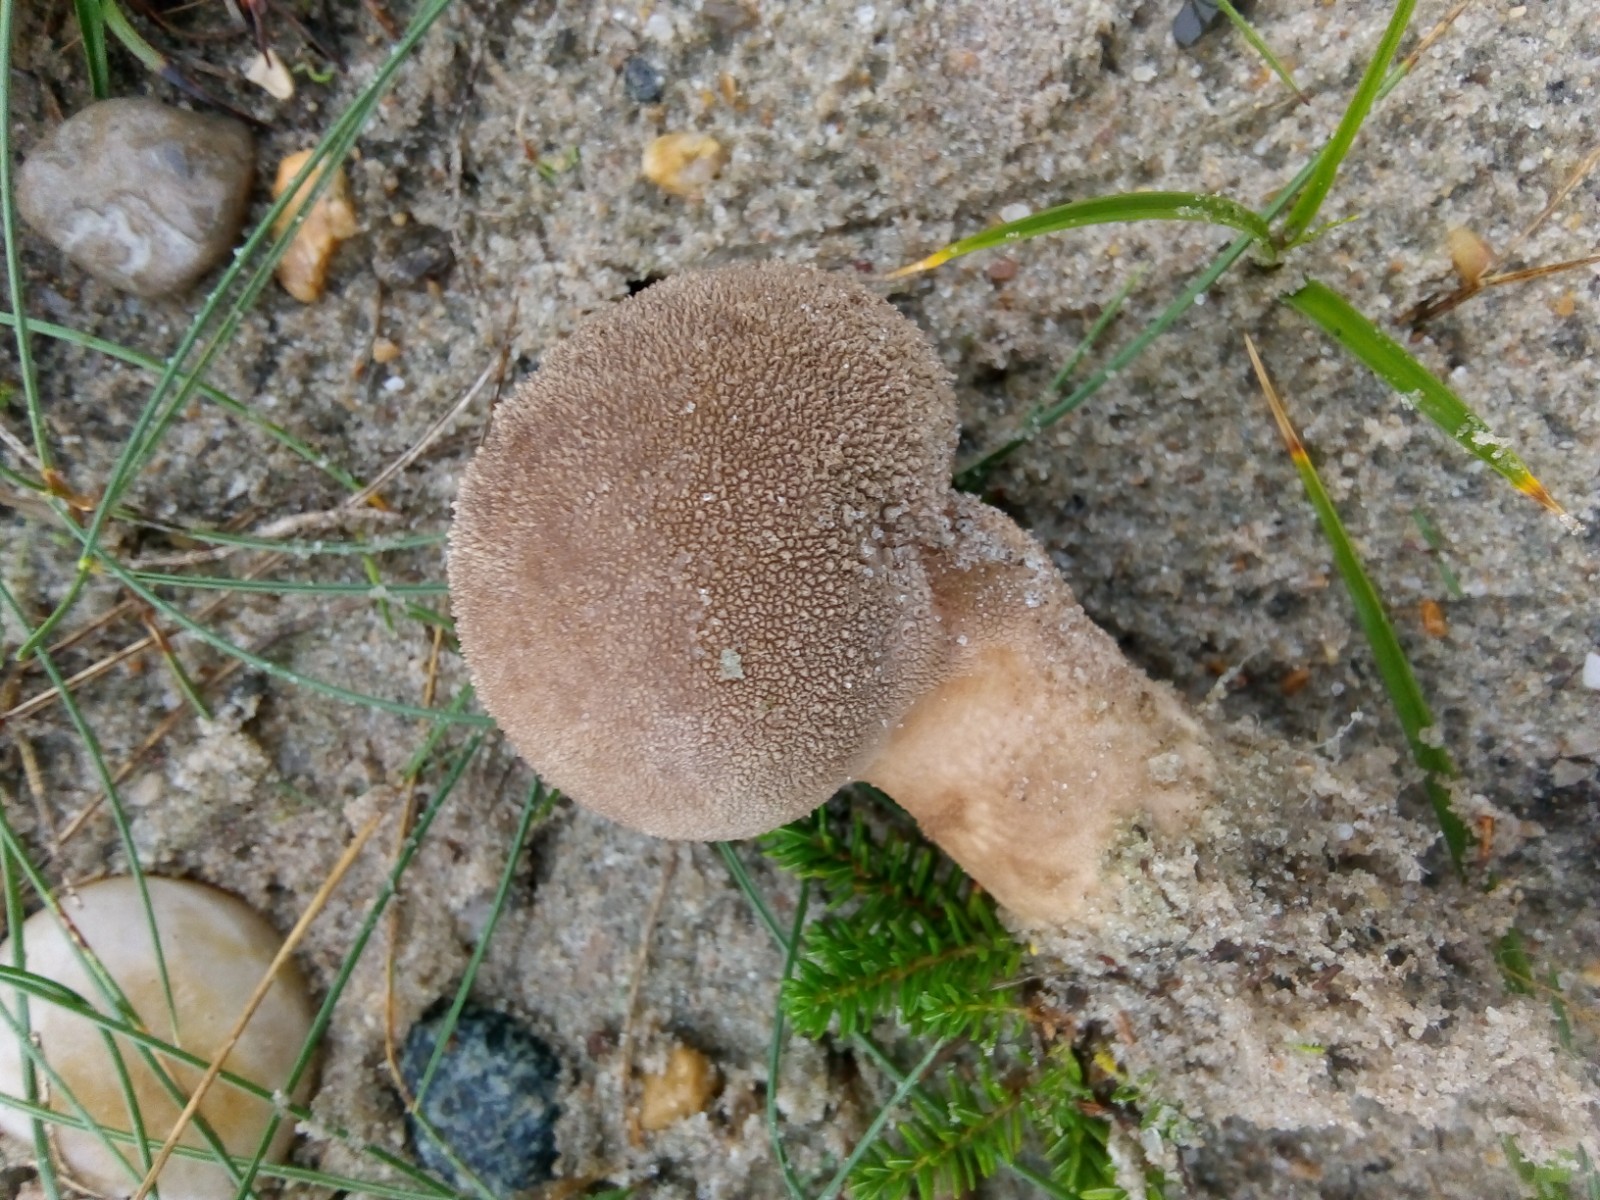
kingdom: Fungi
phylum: Basidiomycota
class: Agaricomycetes
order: Agaricales
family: Lycoperdaceae
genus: Lycoperdon
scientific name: Lycoperdon excipuliforme
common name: højstokket støvbold
